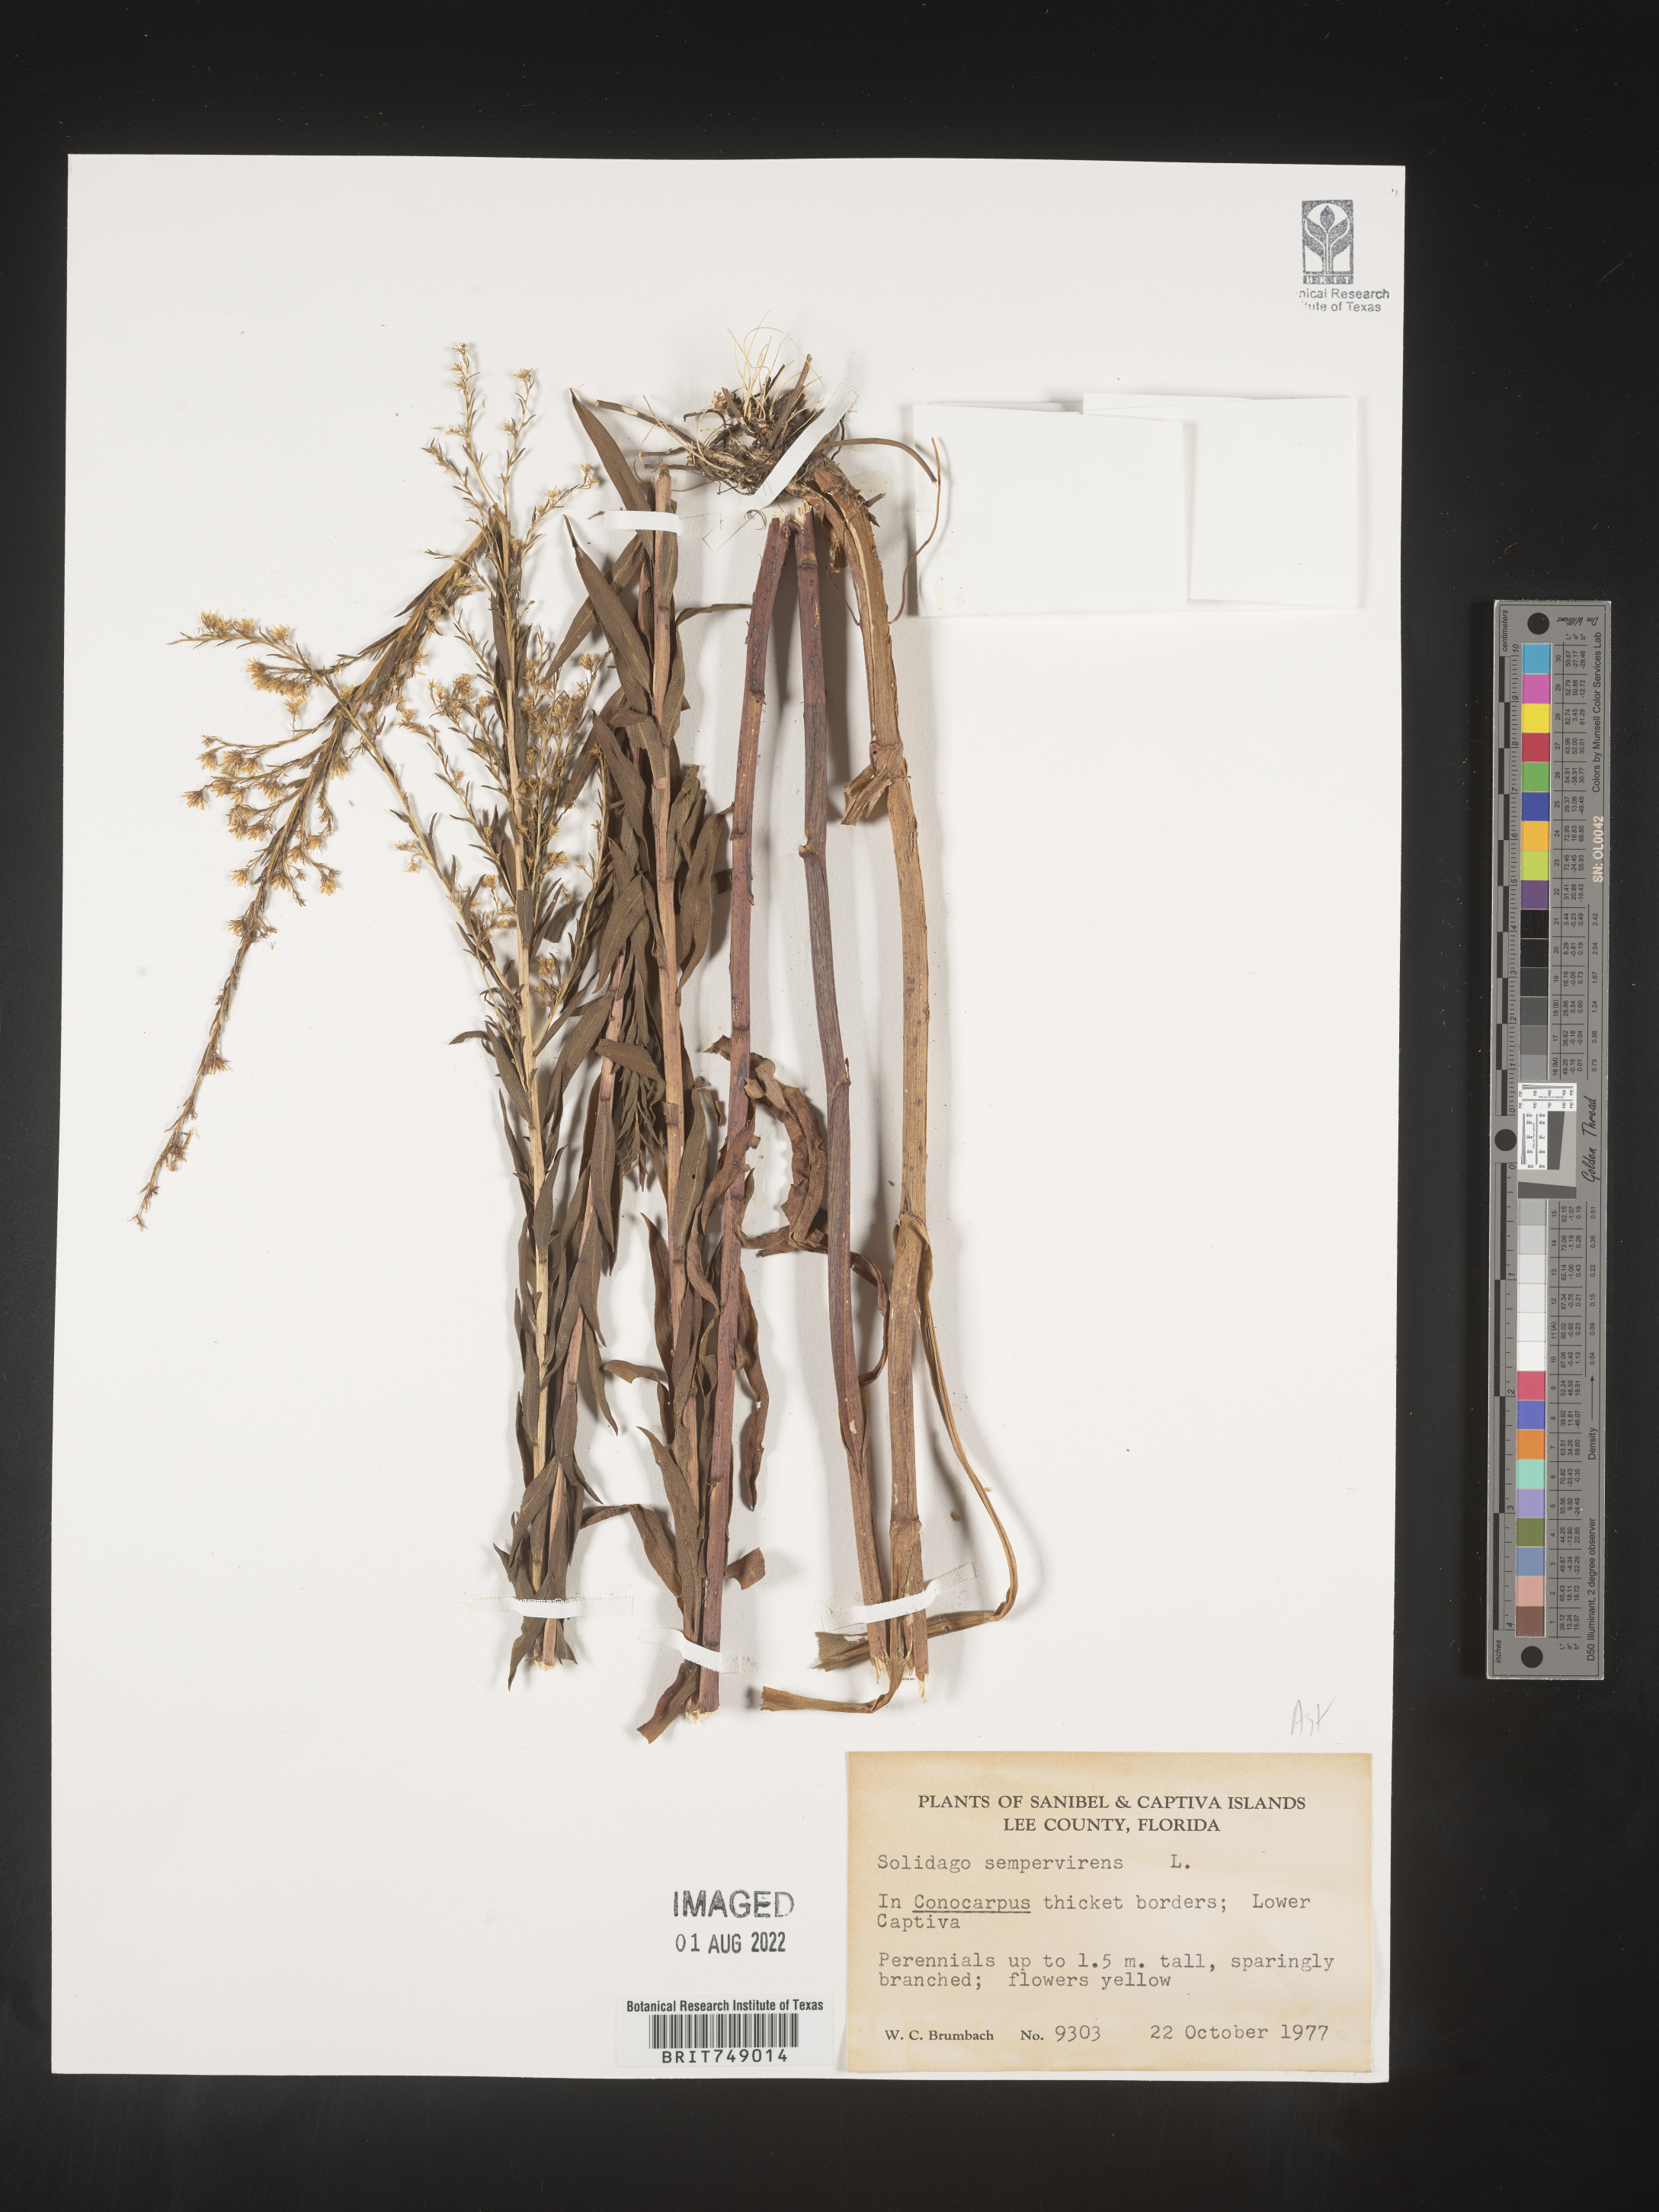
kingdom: Plantae
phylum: Tracheophyta
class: Magnoliopsida
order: Asterales
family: Asteraceae
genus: Solidago
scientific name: Solidago sempervirens
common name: Salt-marsh goldenrod
